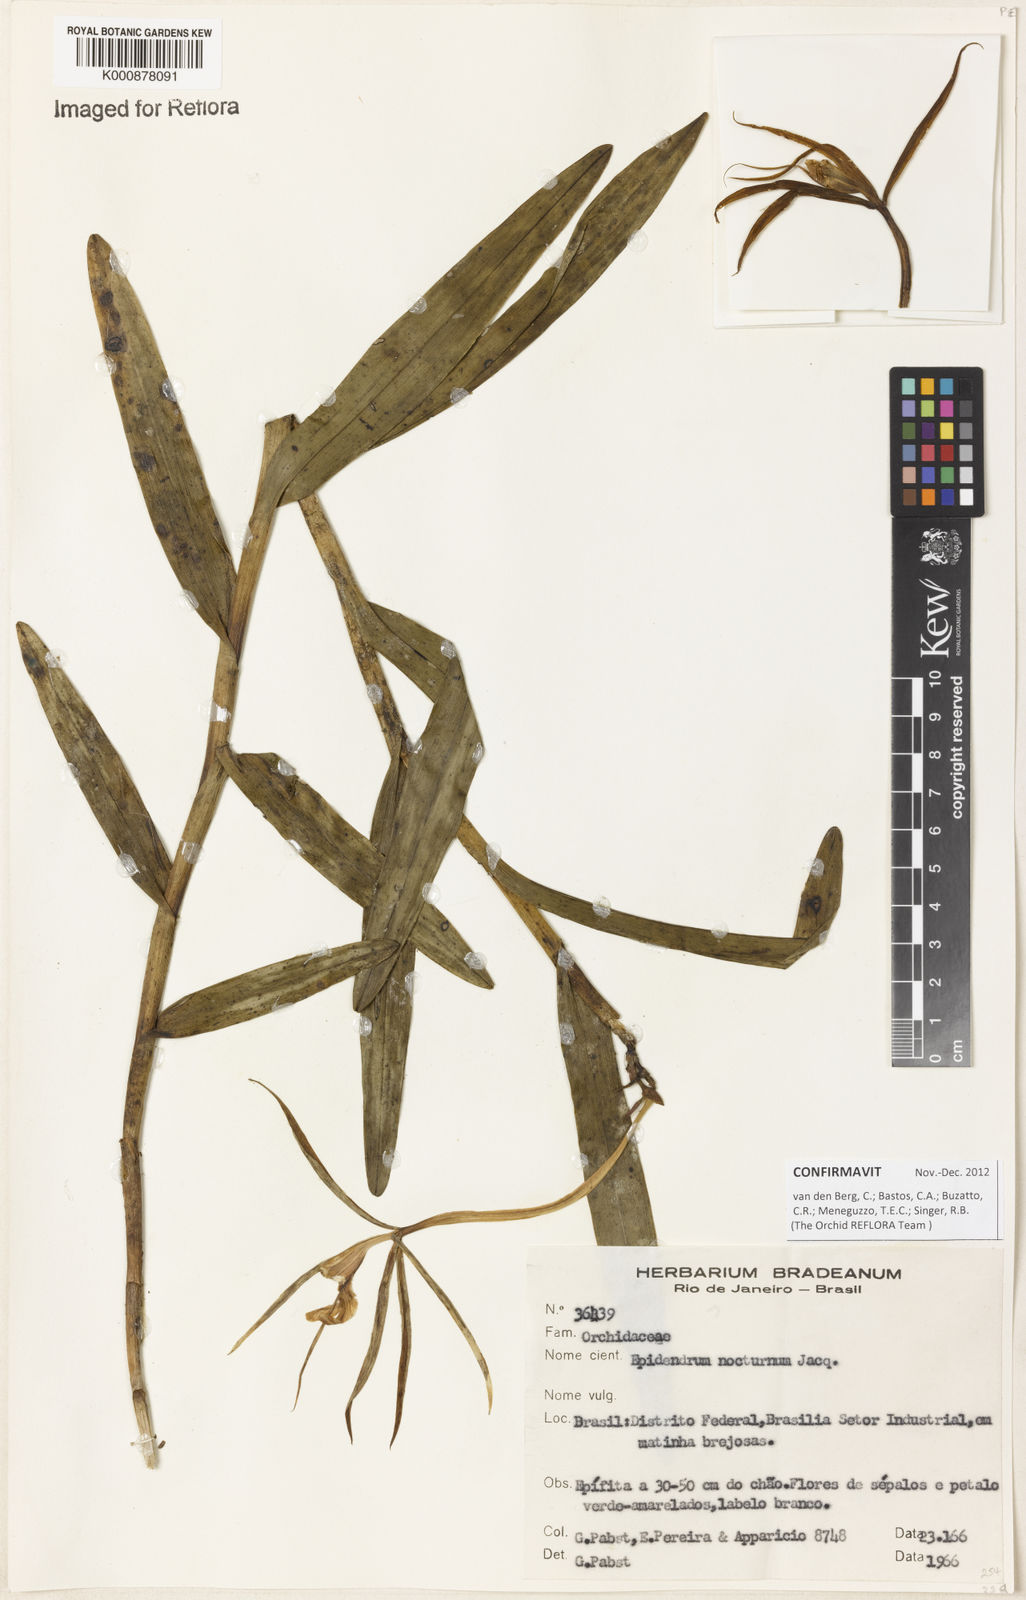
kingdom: Plantae
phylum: Tracheophyta
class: Liliopsida
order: Asparagales
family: Orchidaceae
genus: Epidendrum
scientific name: Epidendrum nocturnum
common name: Night scented orchid
